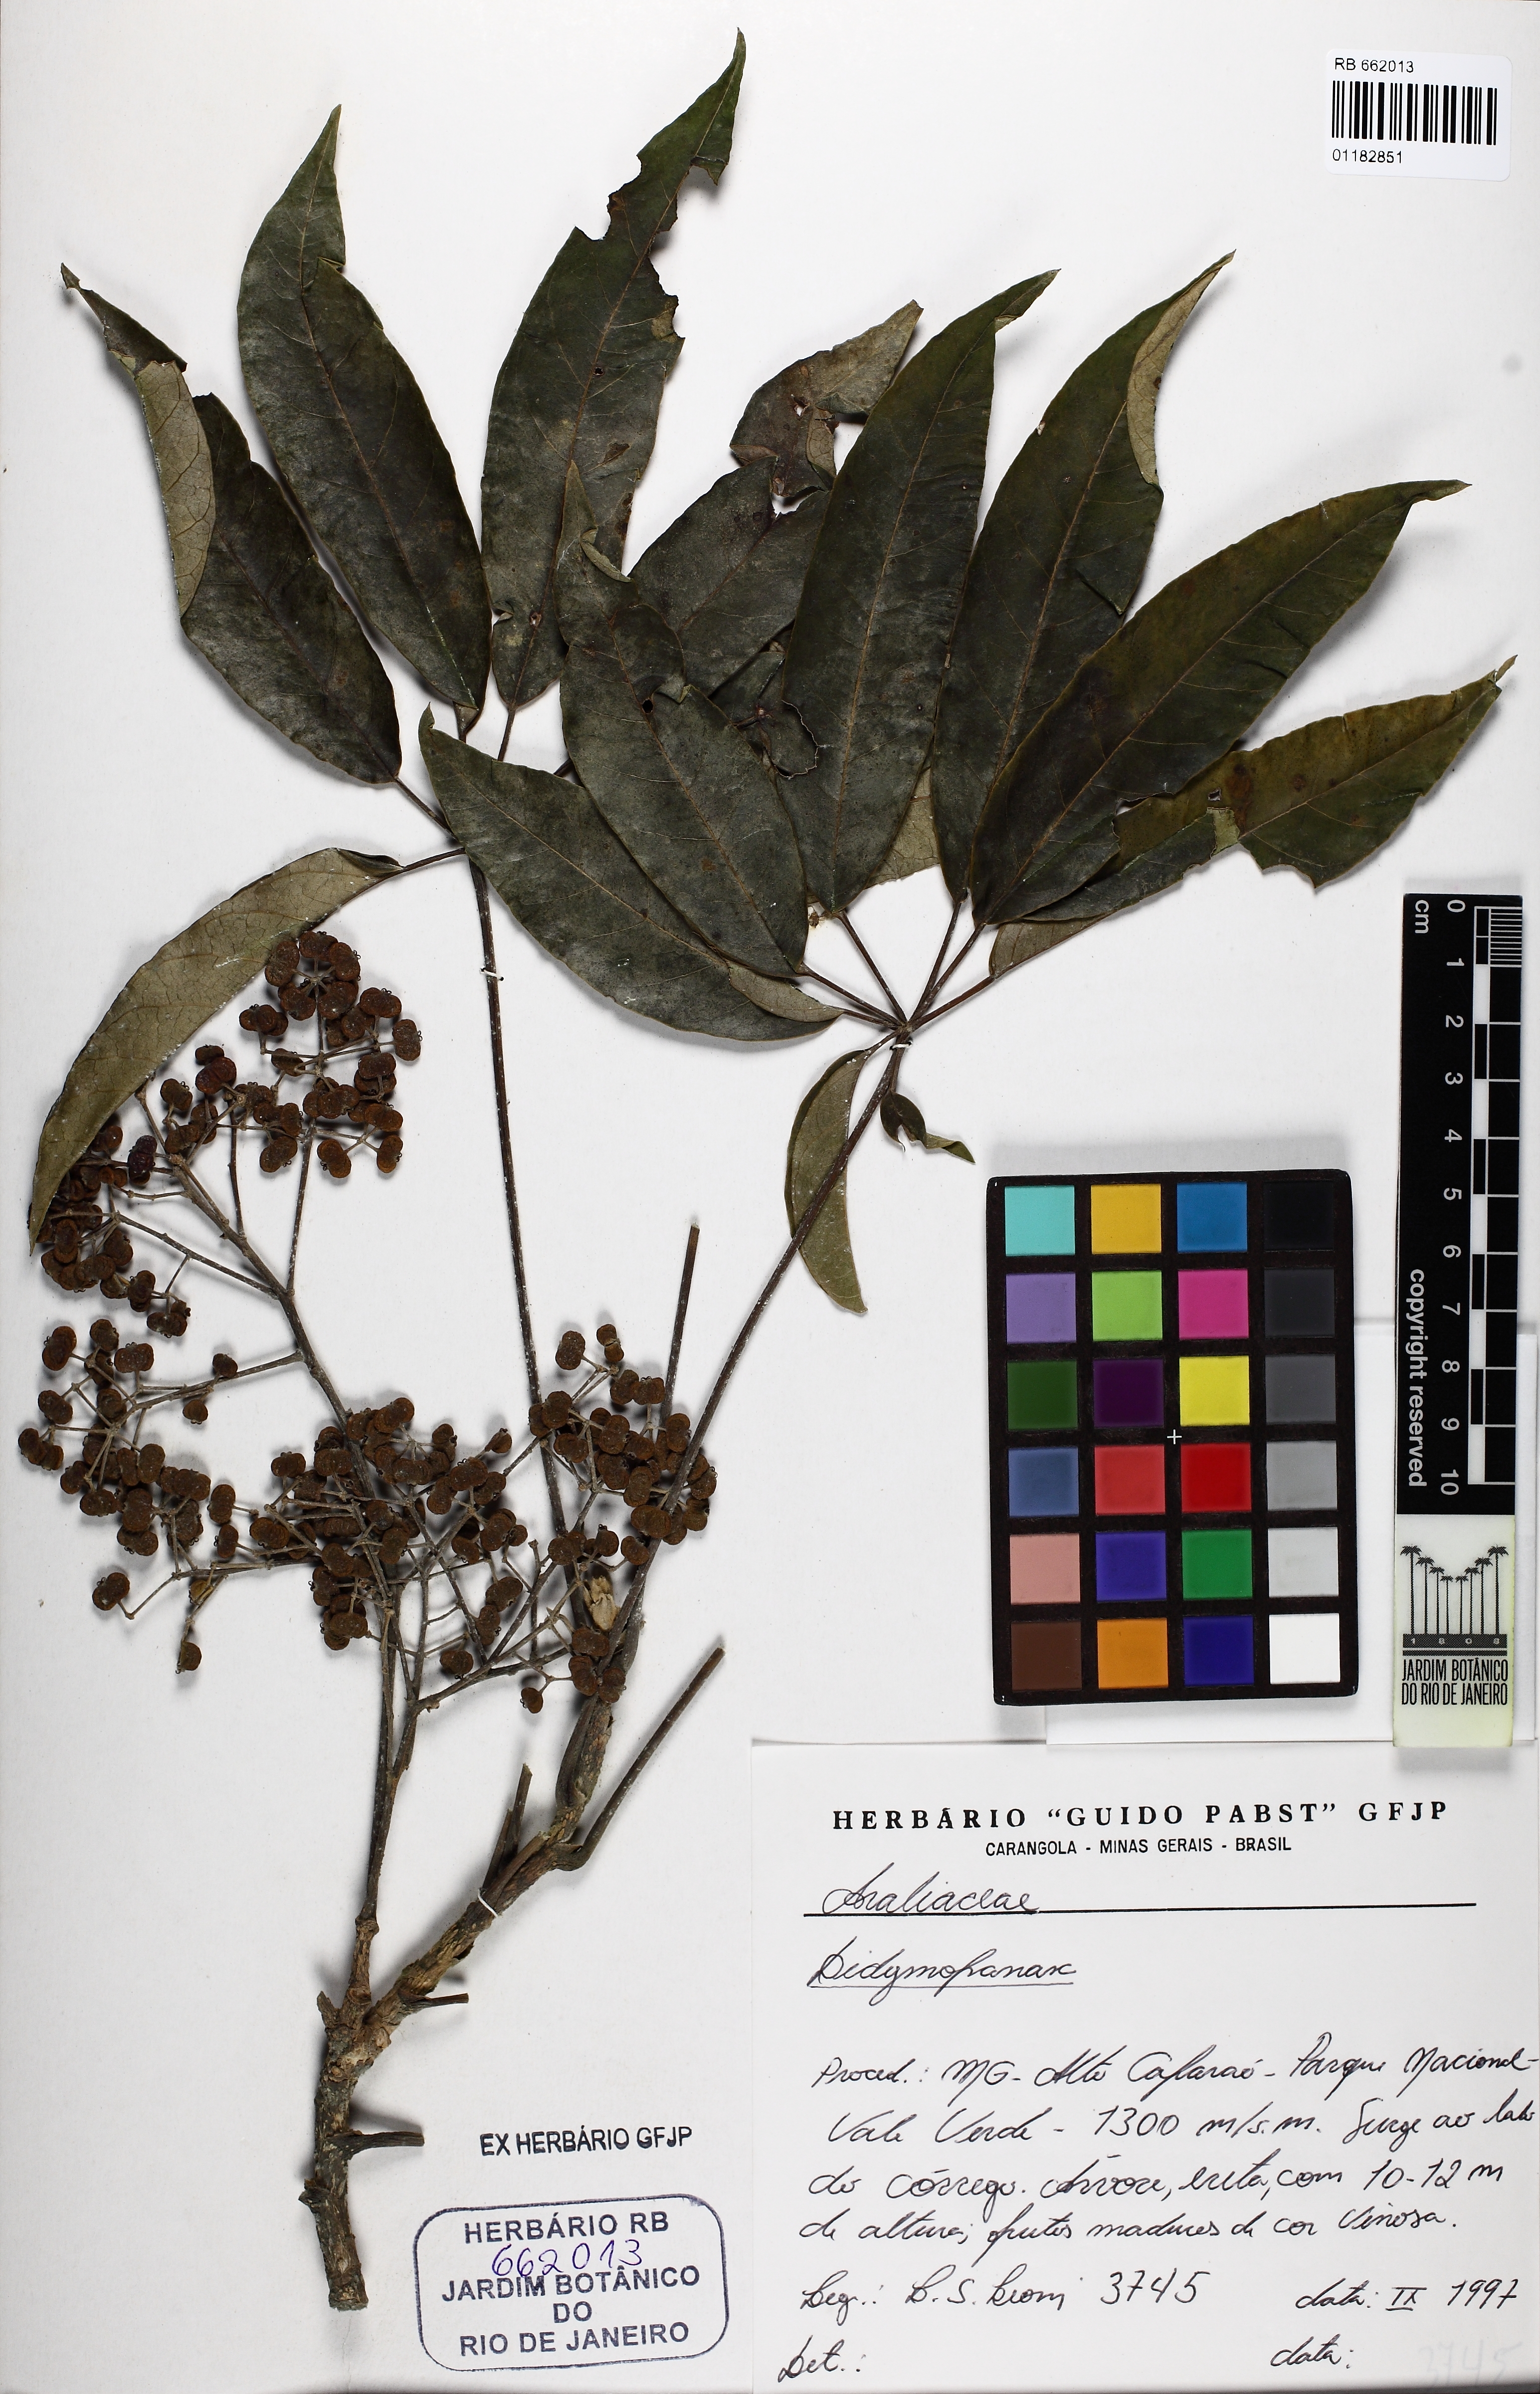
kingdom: Plantae
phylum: Tracheophyta
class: Magnoliopsida
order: Apiales
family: Araliaceae
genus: Didymopanax
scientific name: Didymopanax calvus
